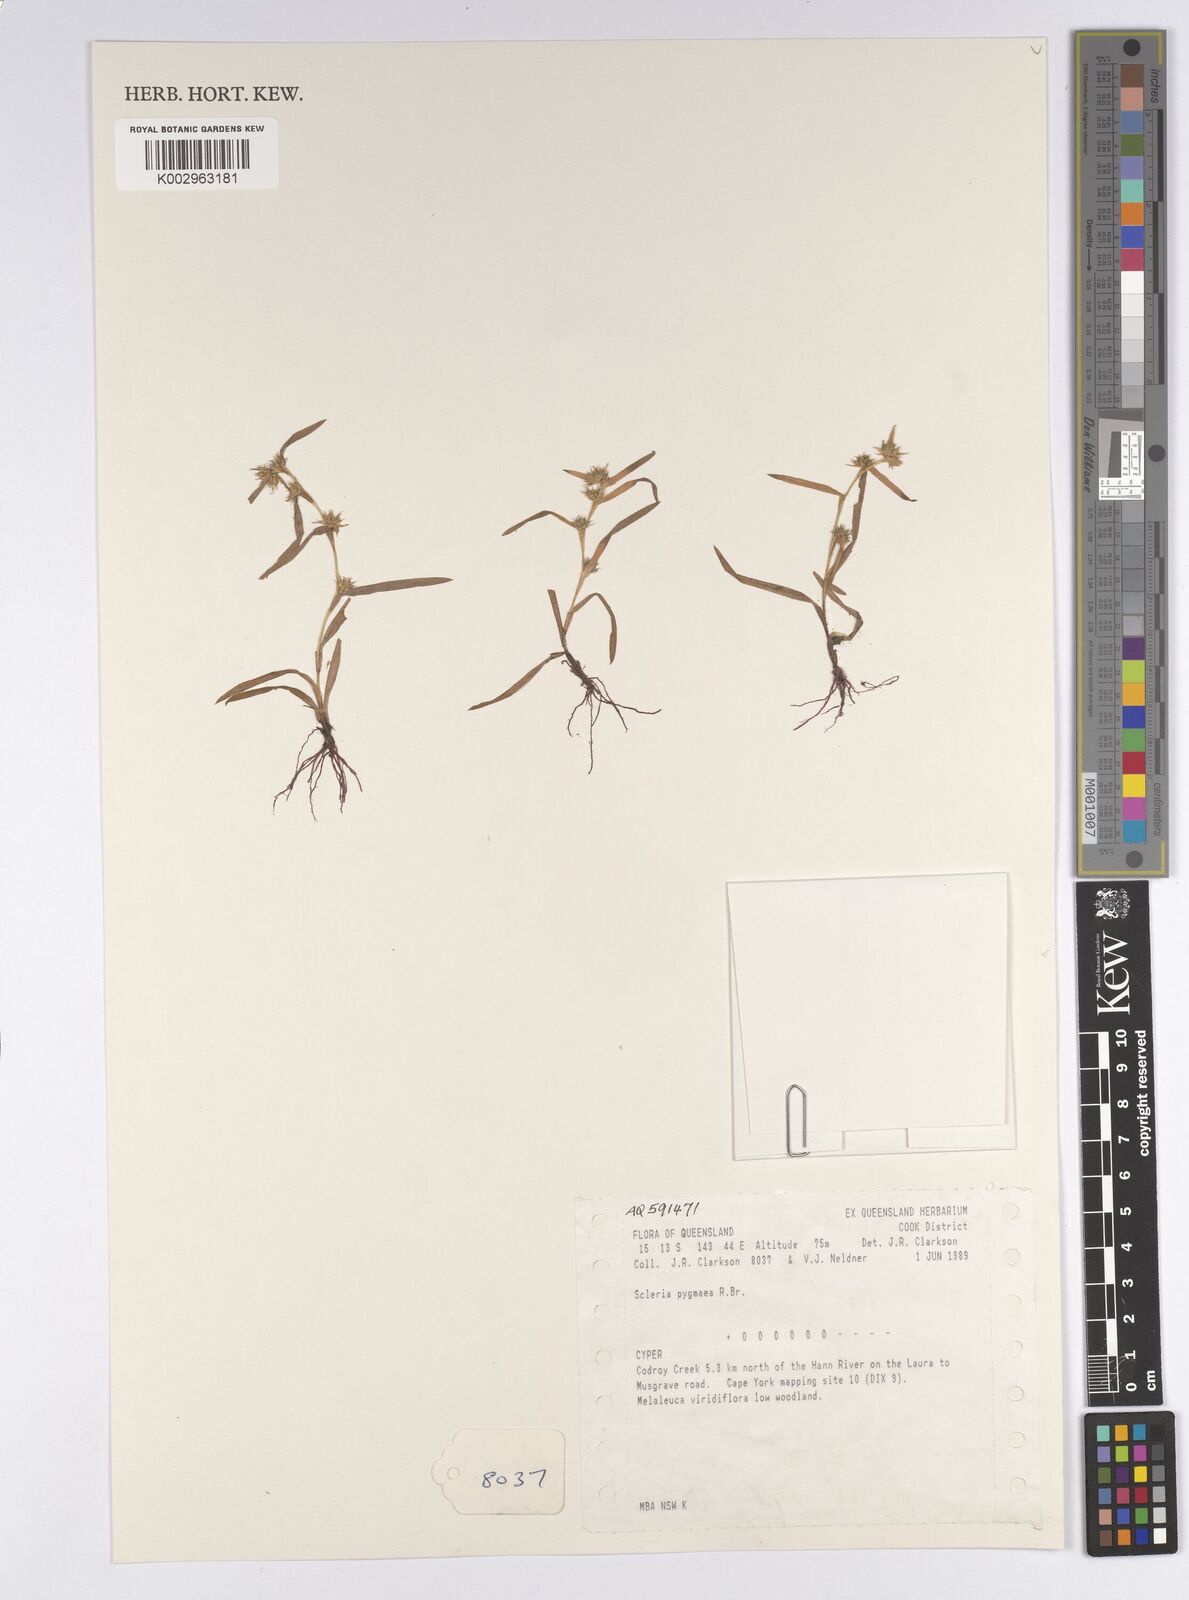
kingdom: Plantae
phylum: Tracheophyta
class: Liliopsida
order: Poales
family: Cyperaceae
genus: Diplacrum
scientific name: Diplacrum pygmaeum
